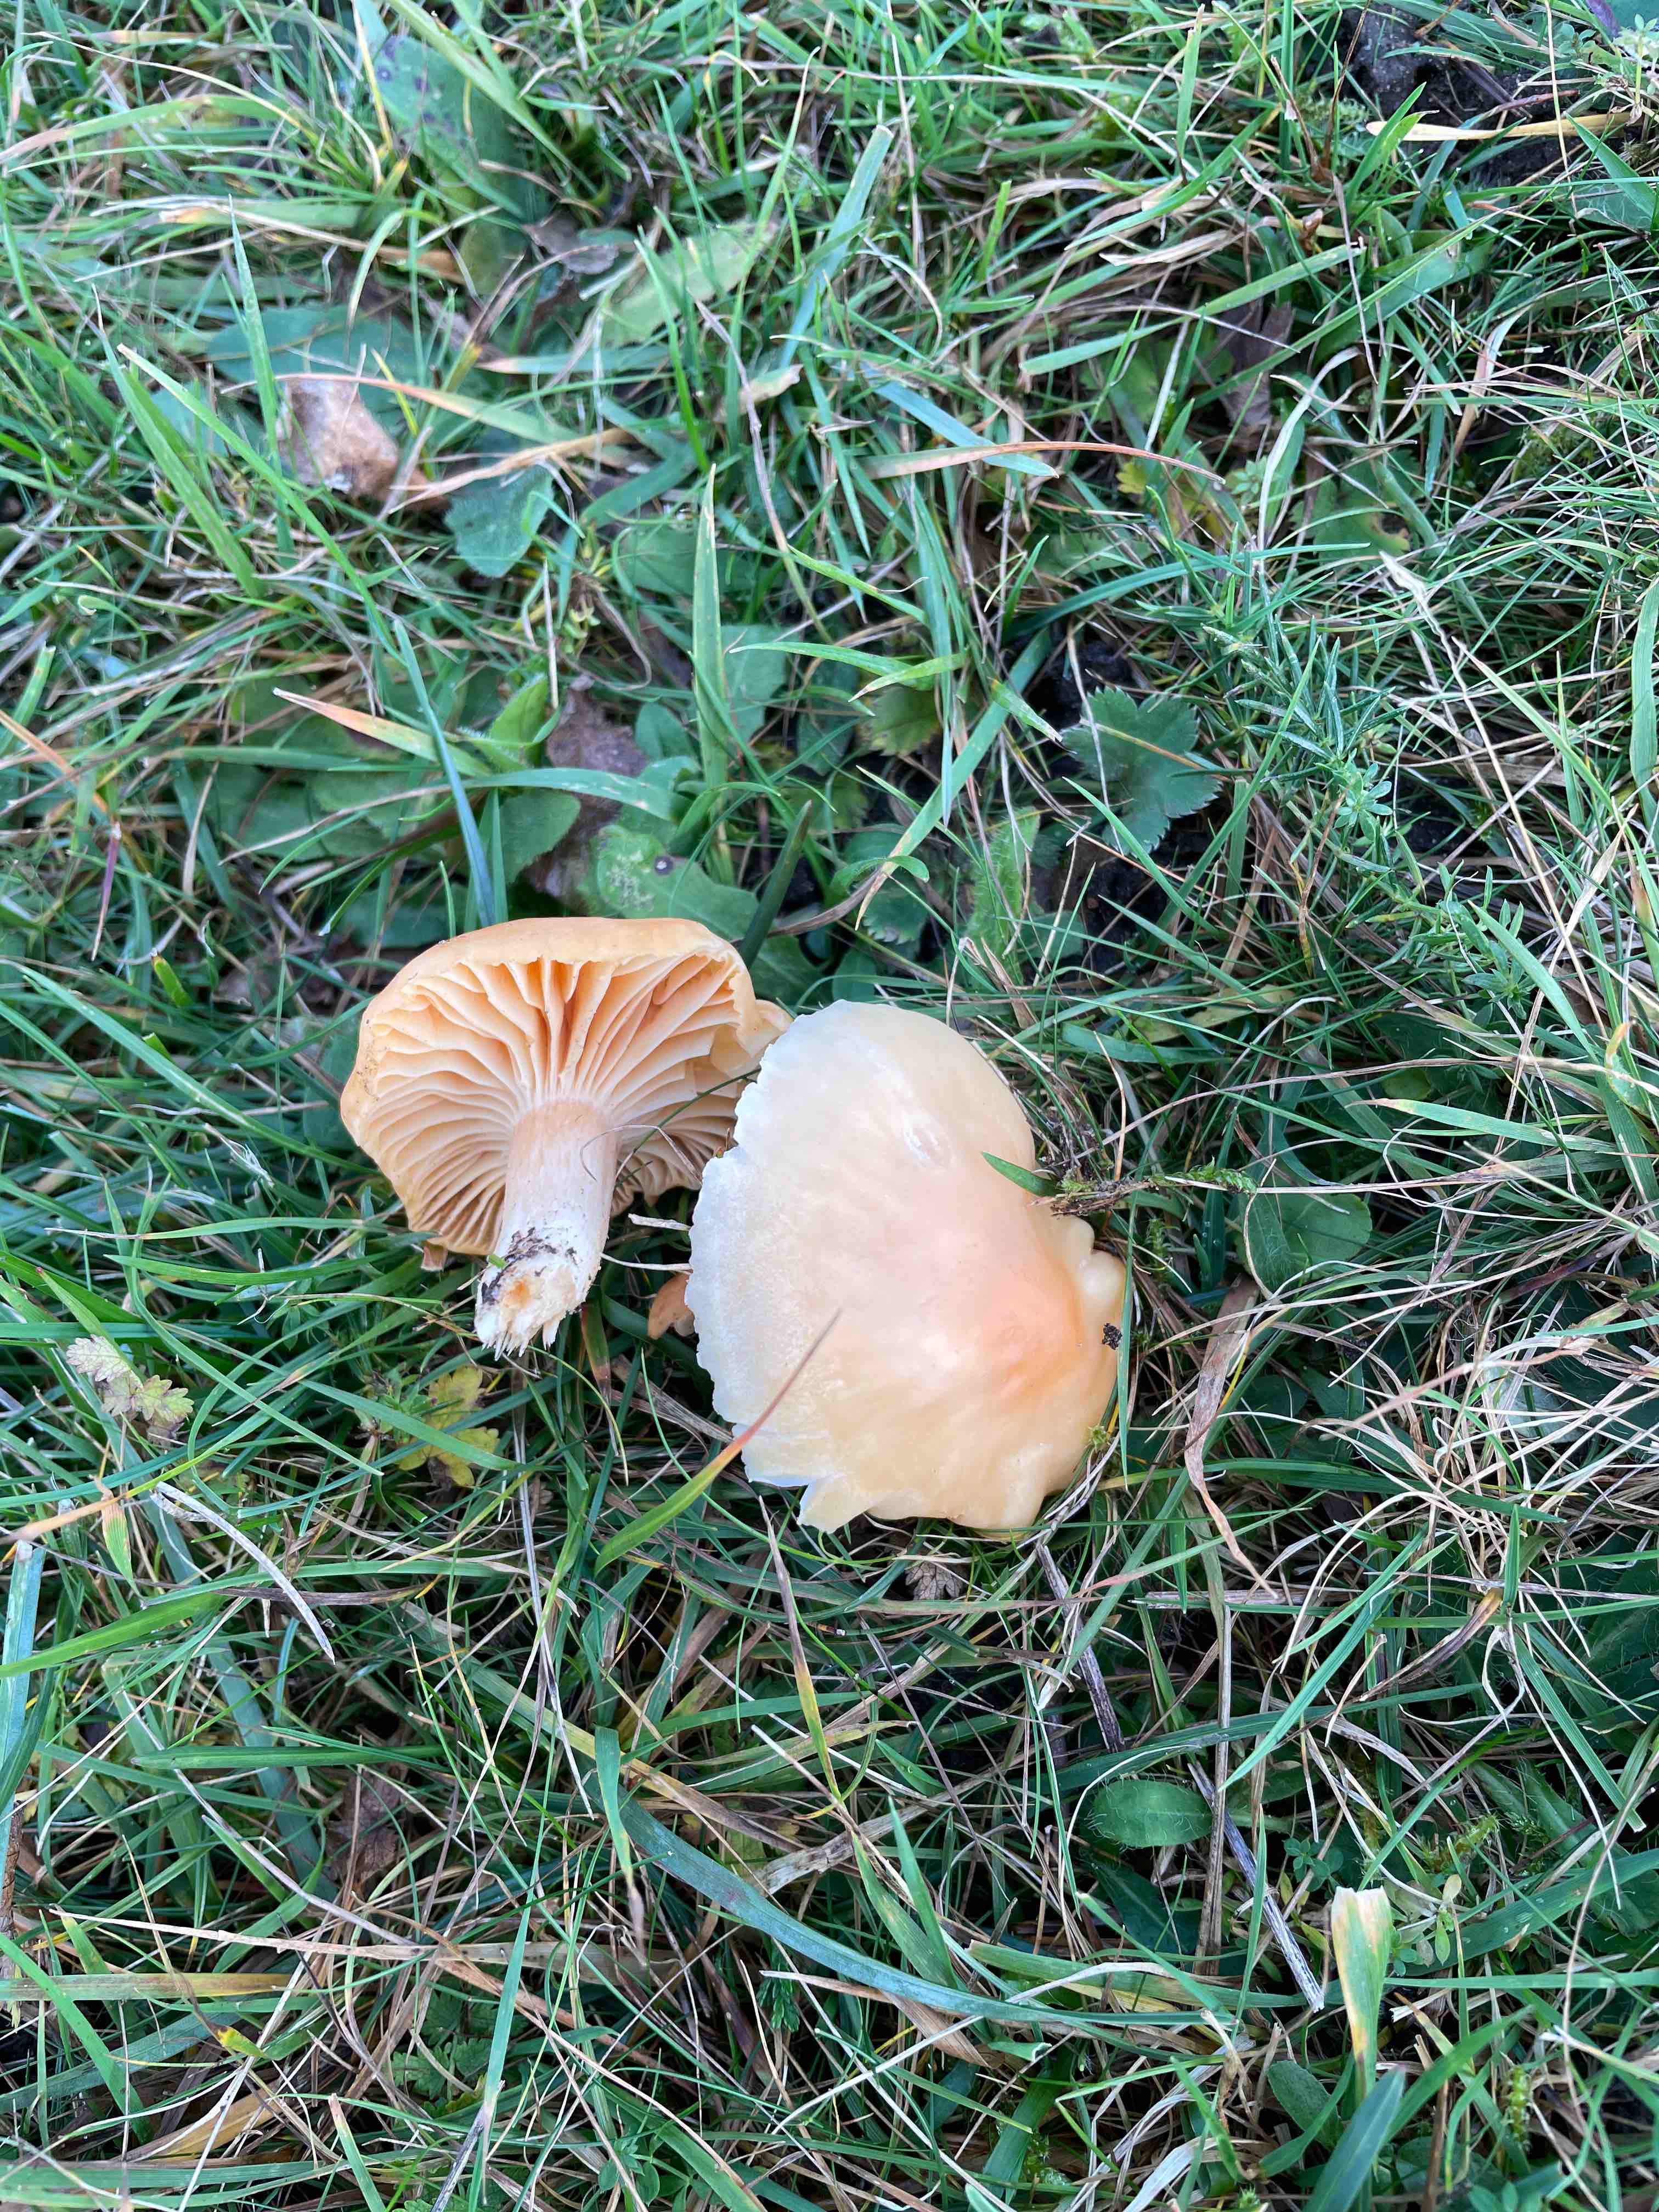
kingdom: Fungi
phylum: Basidiomycota
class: Agaricomycetes
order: Agaricales
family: Hygrophoraceae
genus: Cuphophyllus
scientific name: Cuphophyllus pratensis
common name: eng-vokshat
